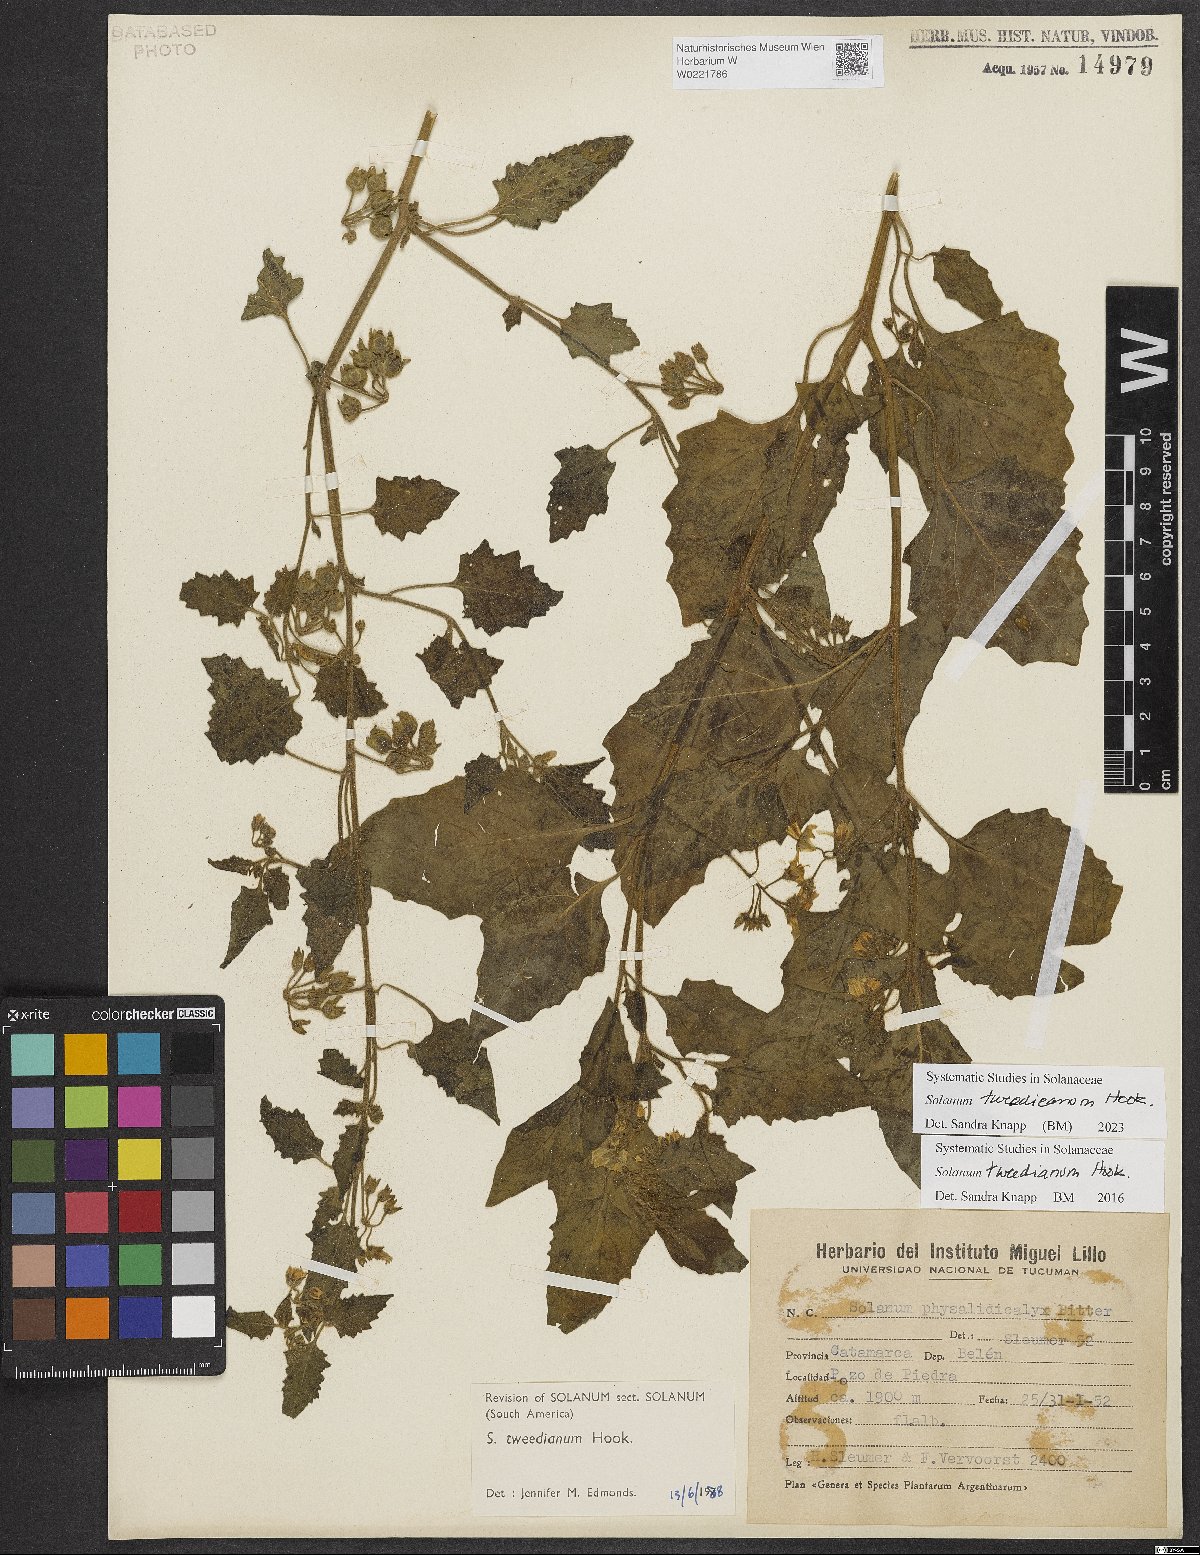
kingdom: Plantae
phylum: Tracheophyta
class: Magnoliopsida
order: Solanales
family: Solanaceae
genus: Solanum
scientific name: Solanum tweedieanum
